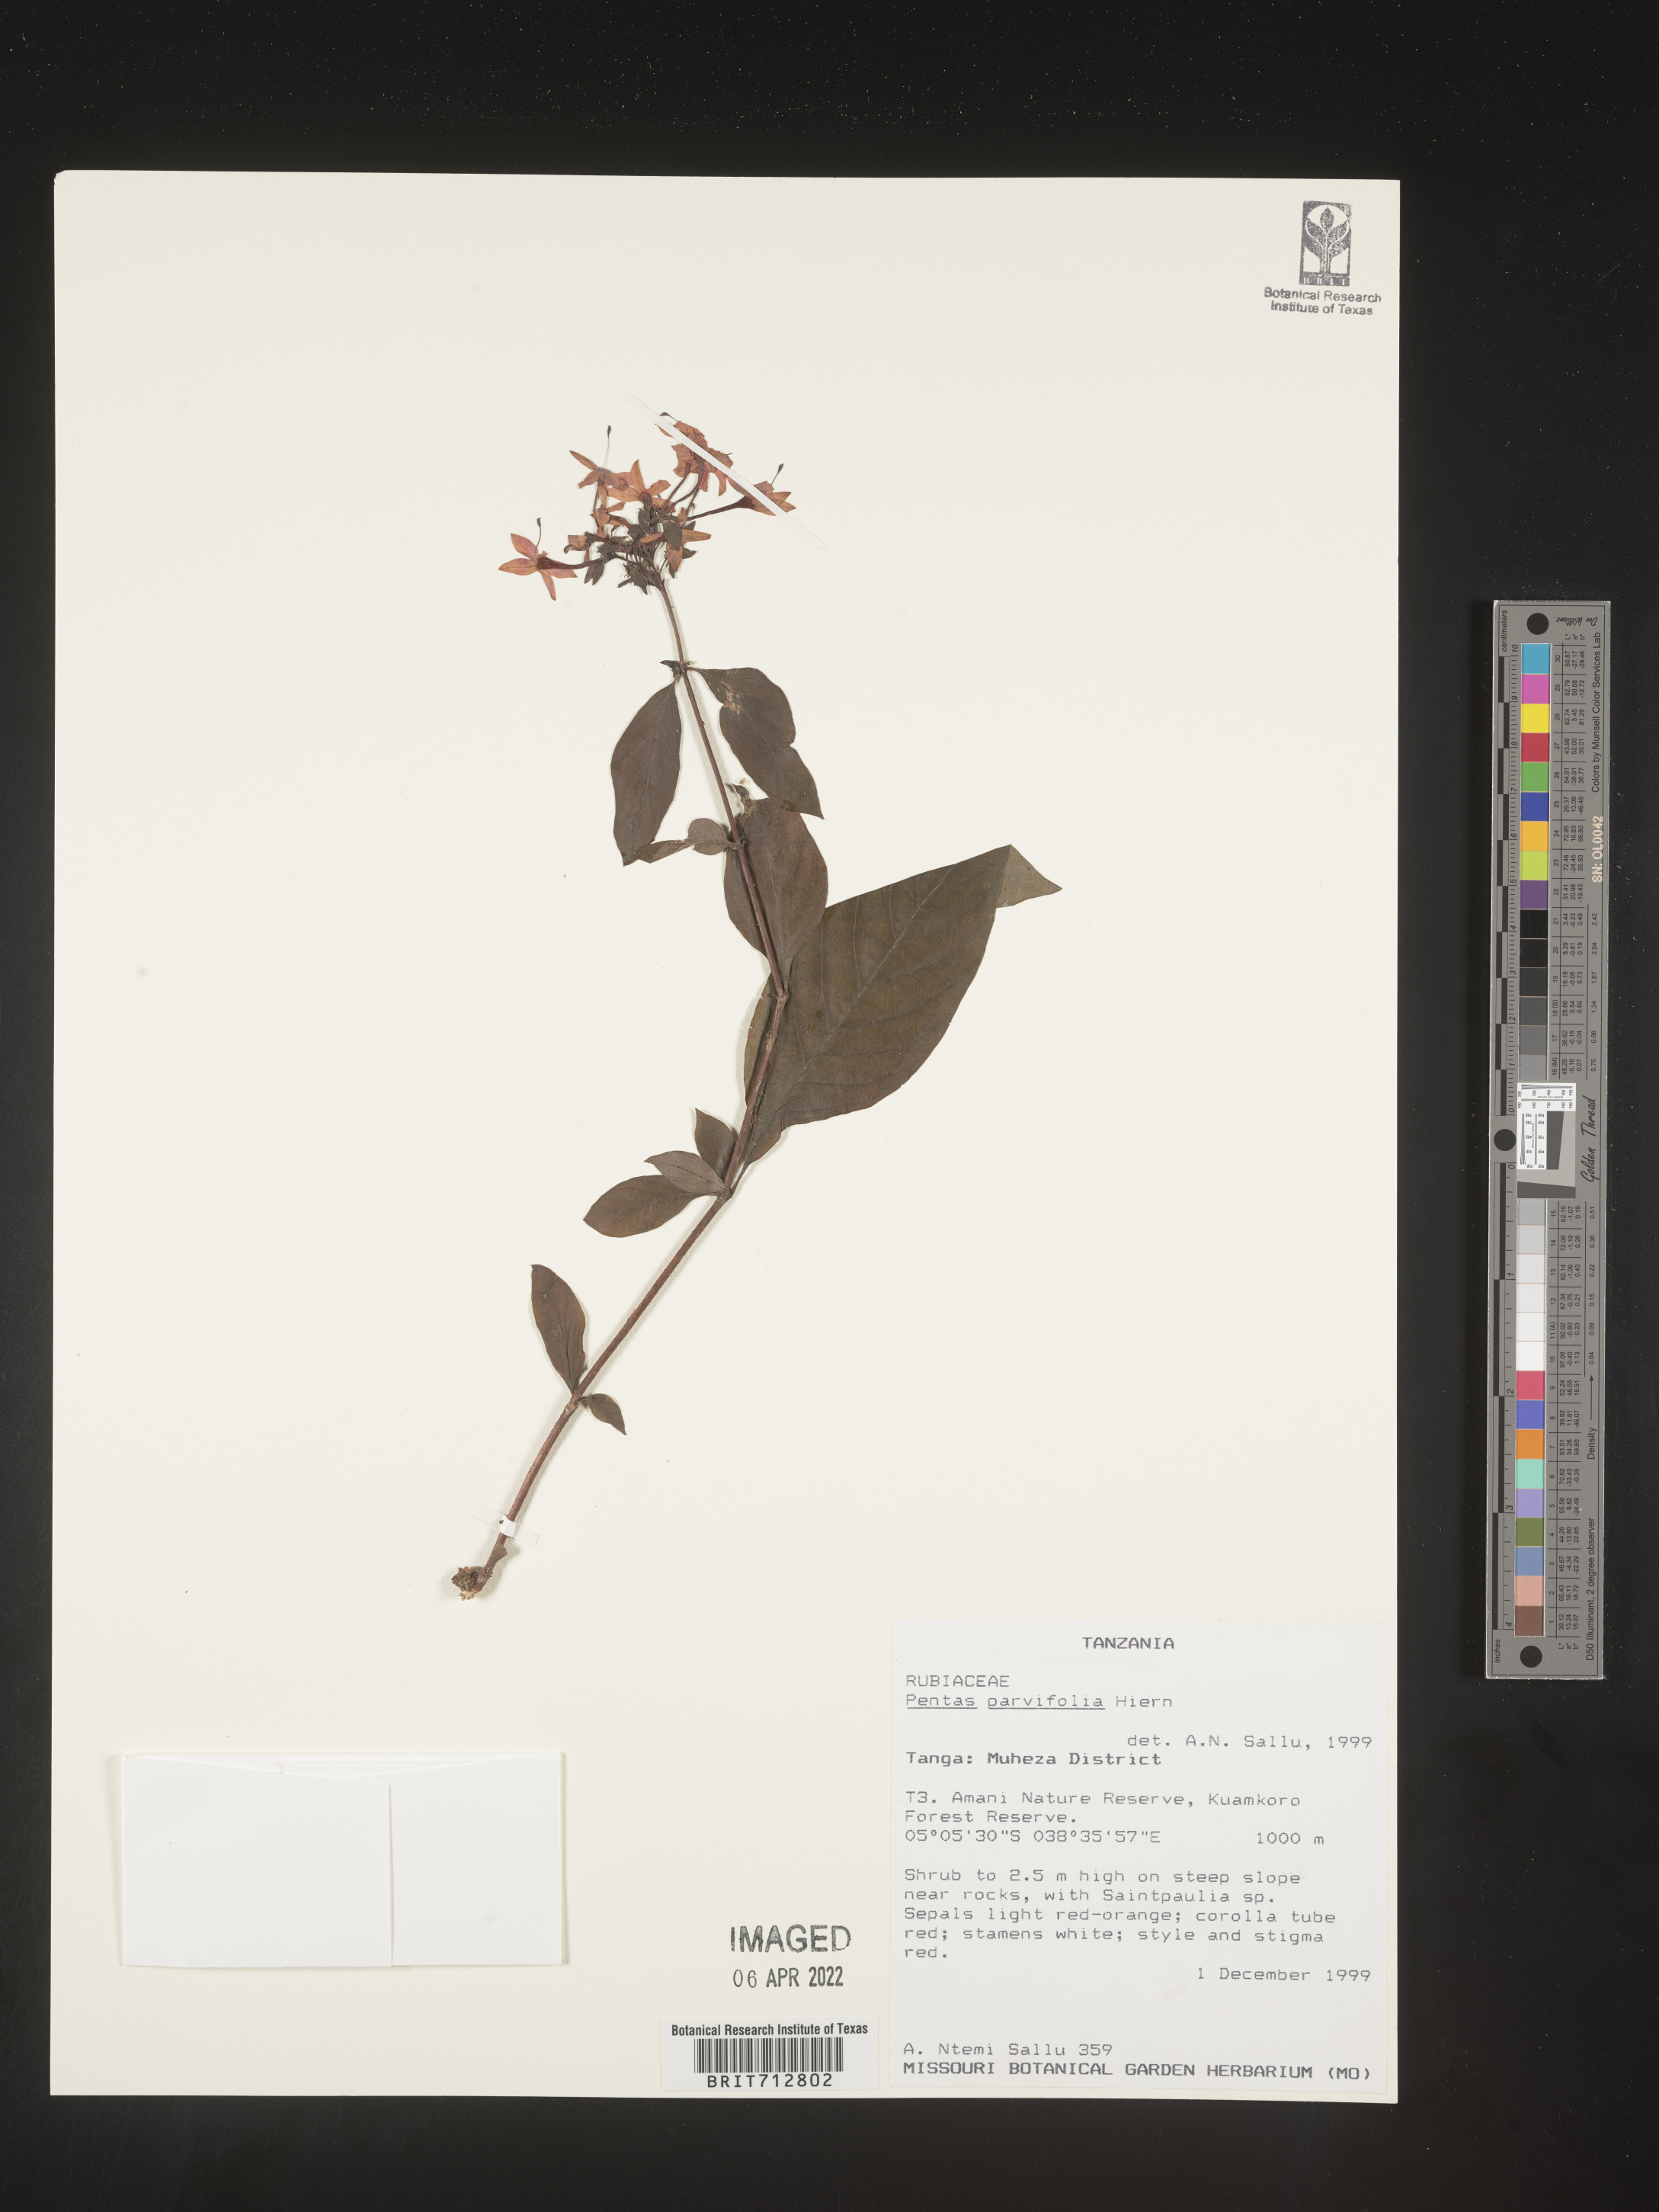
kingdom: Plantae
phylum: Tracheophyta
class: Magnoliopsida
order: Gentianales
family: Rubiaceae
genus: Pentas
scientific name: Pentas
